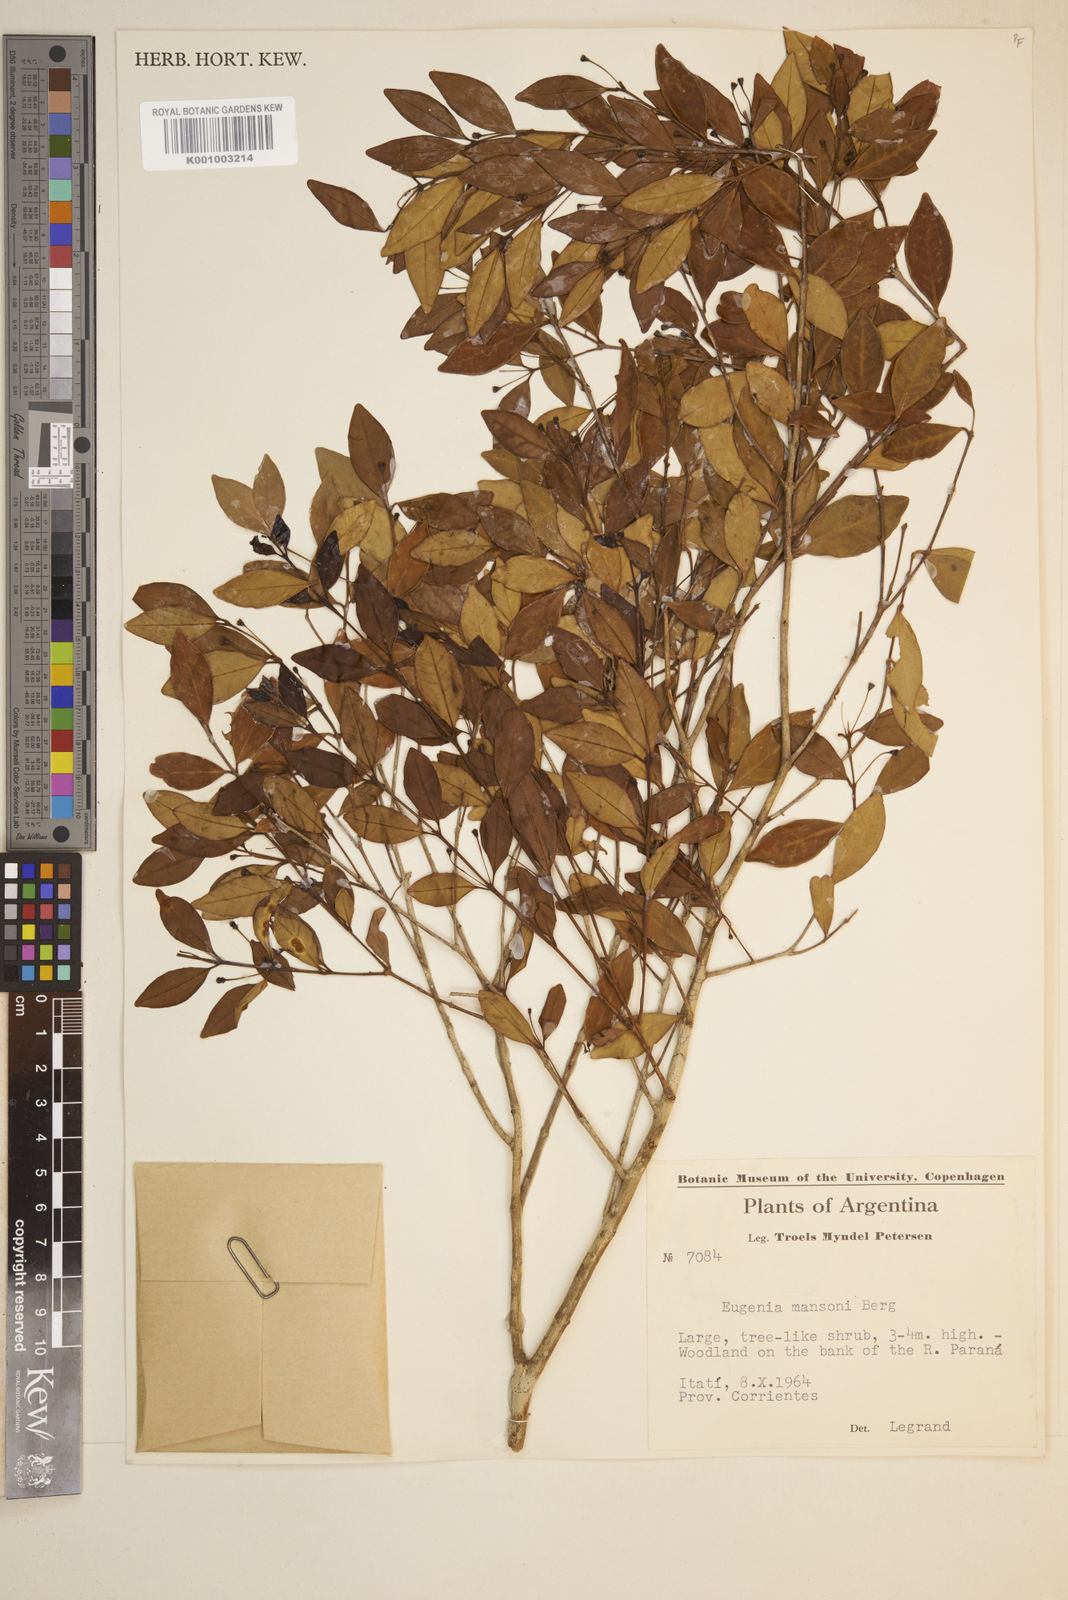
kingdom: Plantae
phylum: Tracheophyta
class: Magnoliopsida
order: Myrtales
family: Myrtaceae
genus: Eugenia
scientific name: Eugenia
